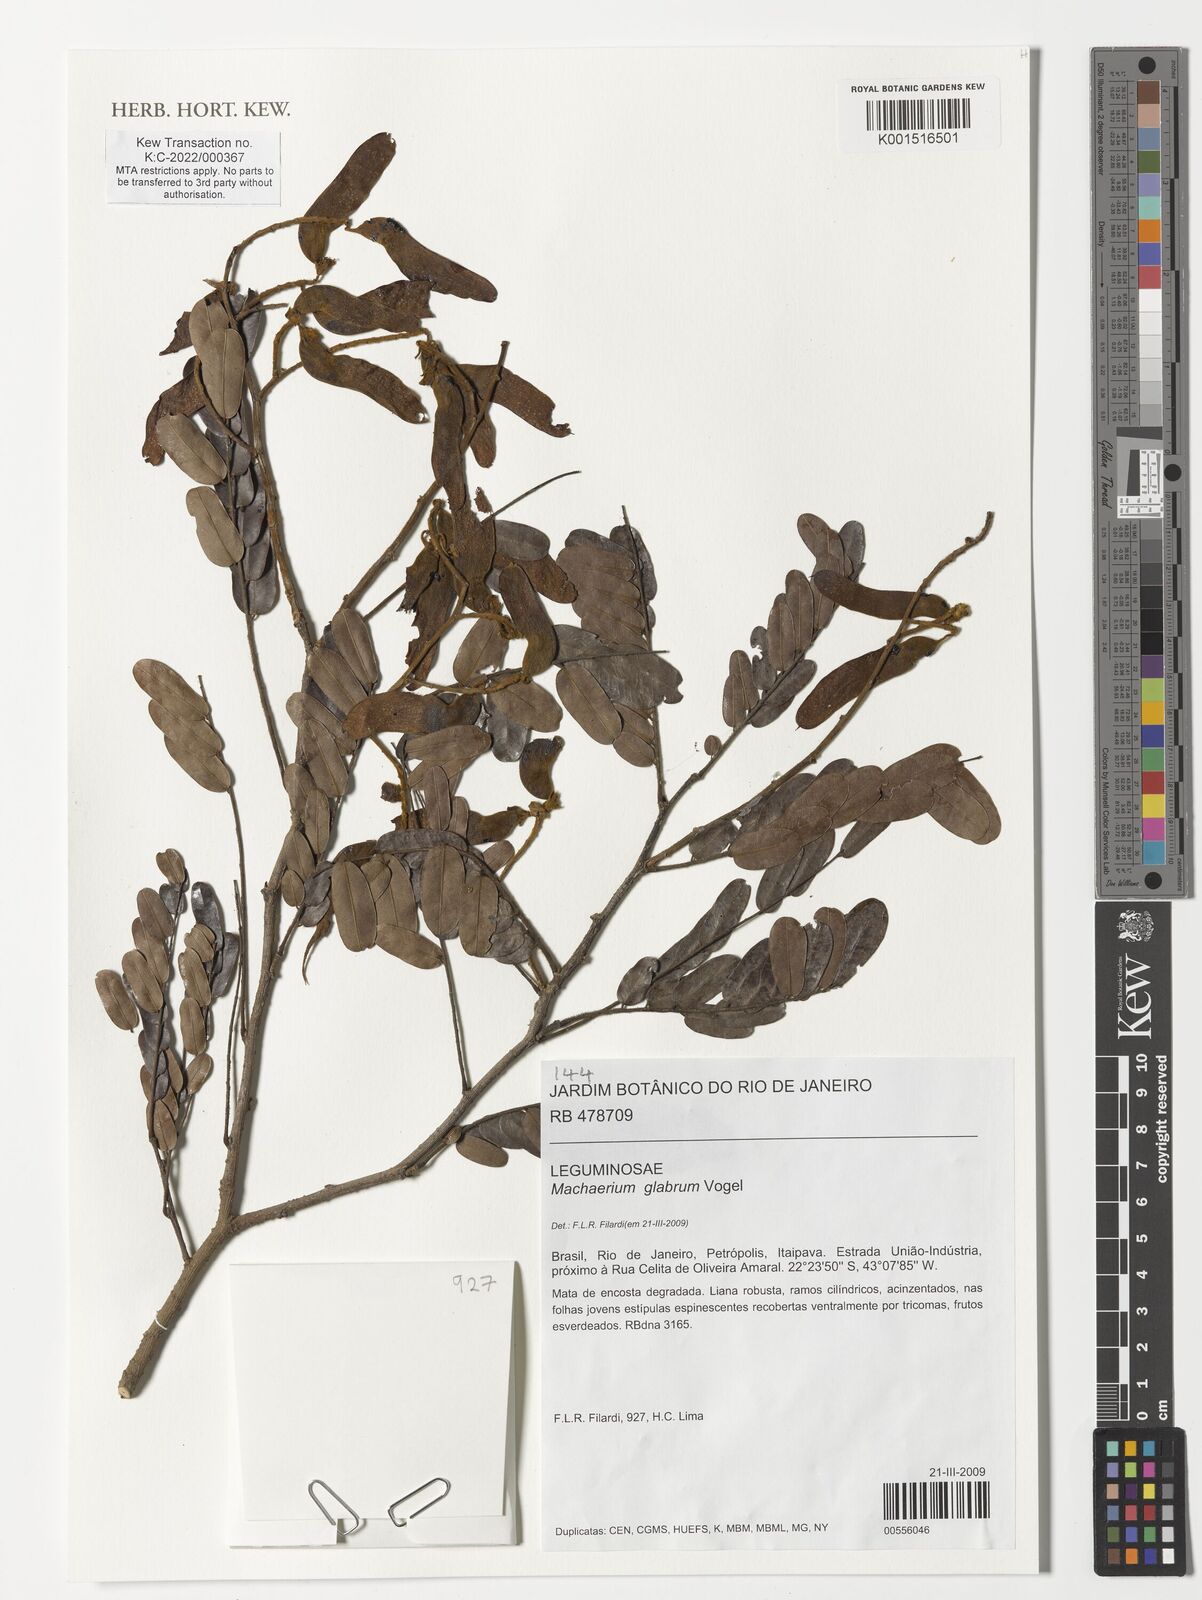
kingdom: Plantae
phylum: Tracheophyta
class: Magnoliopsida
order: Fabales
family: Fabaceae
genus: Machaerium
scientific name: Machaerium glabrum
